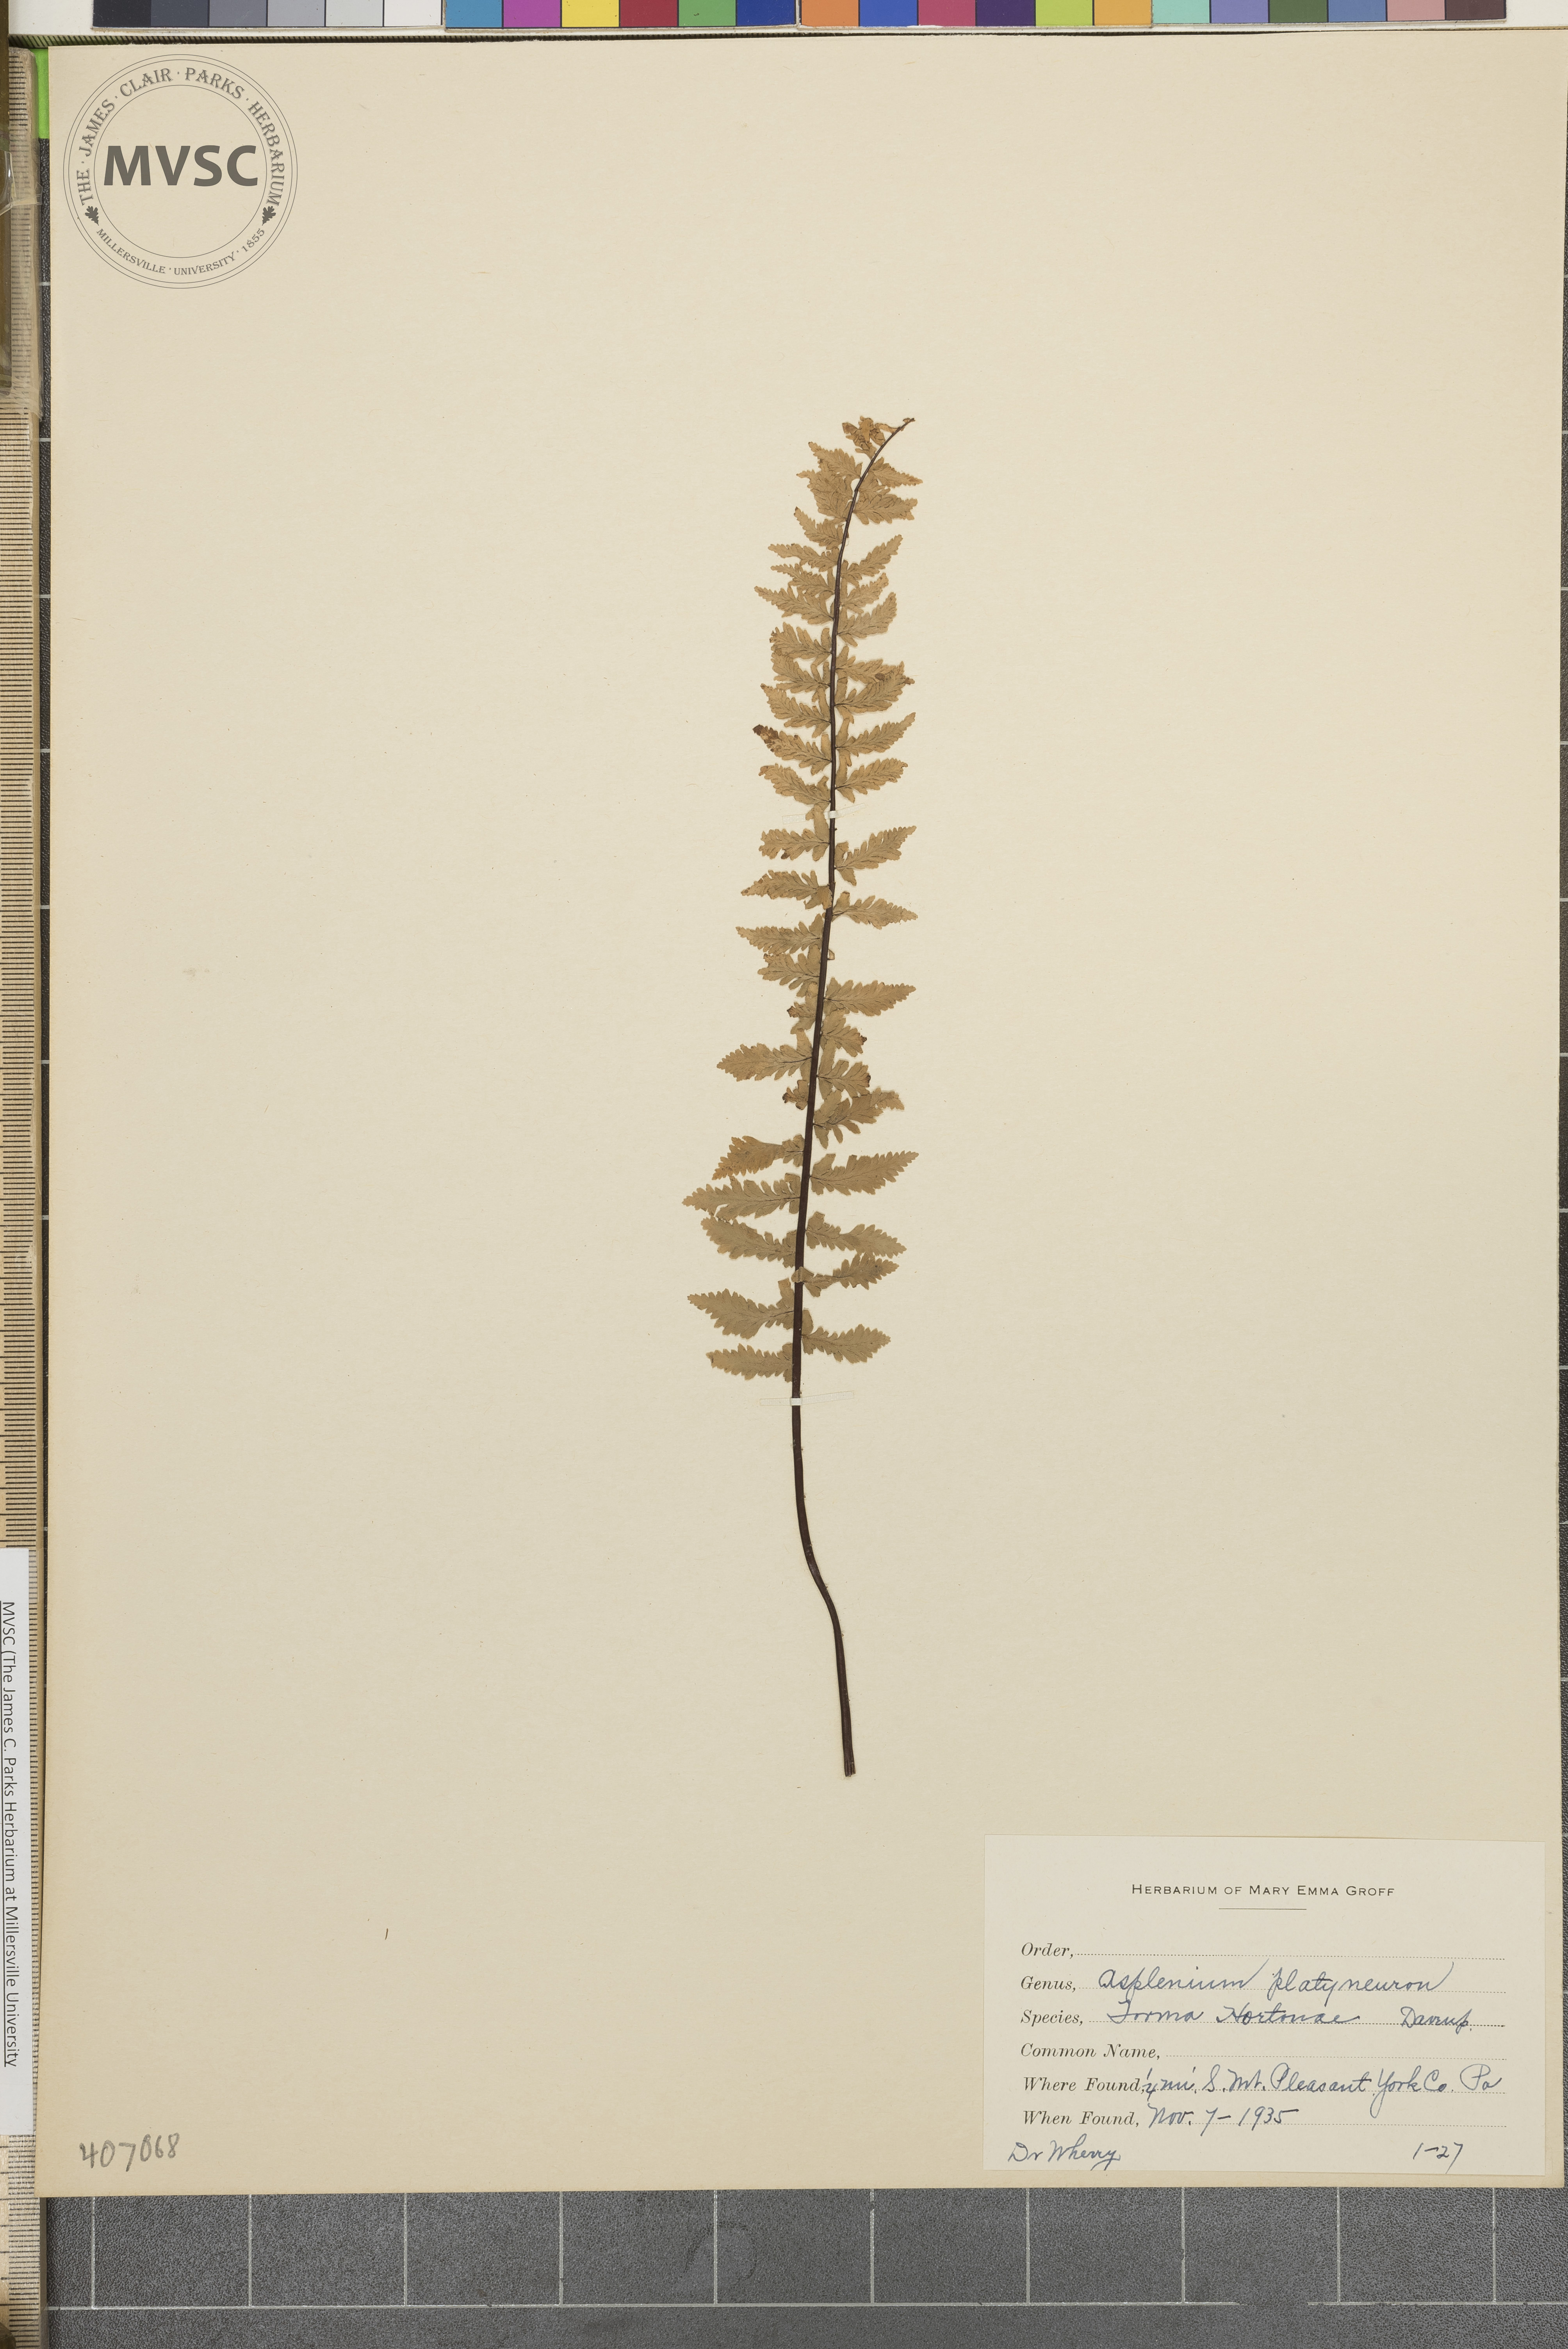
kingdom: Plantae
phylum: Tracheophyta
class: Polypodiopsida
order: Polypodiales
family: Aspleniaceae
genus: Asplenium
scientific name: Asplenium platyneuron
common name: Ebony spleenwort
